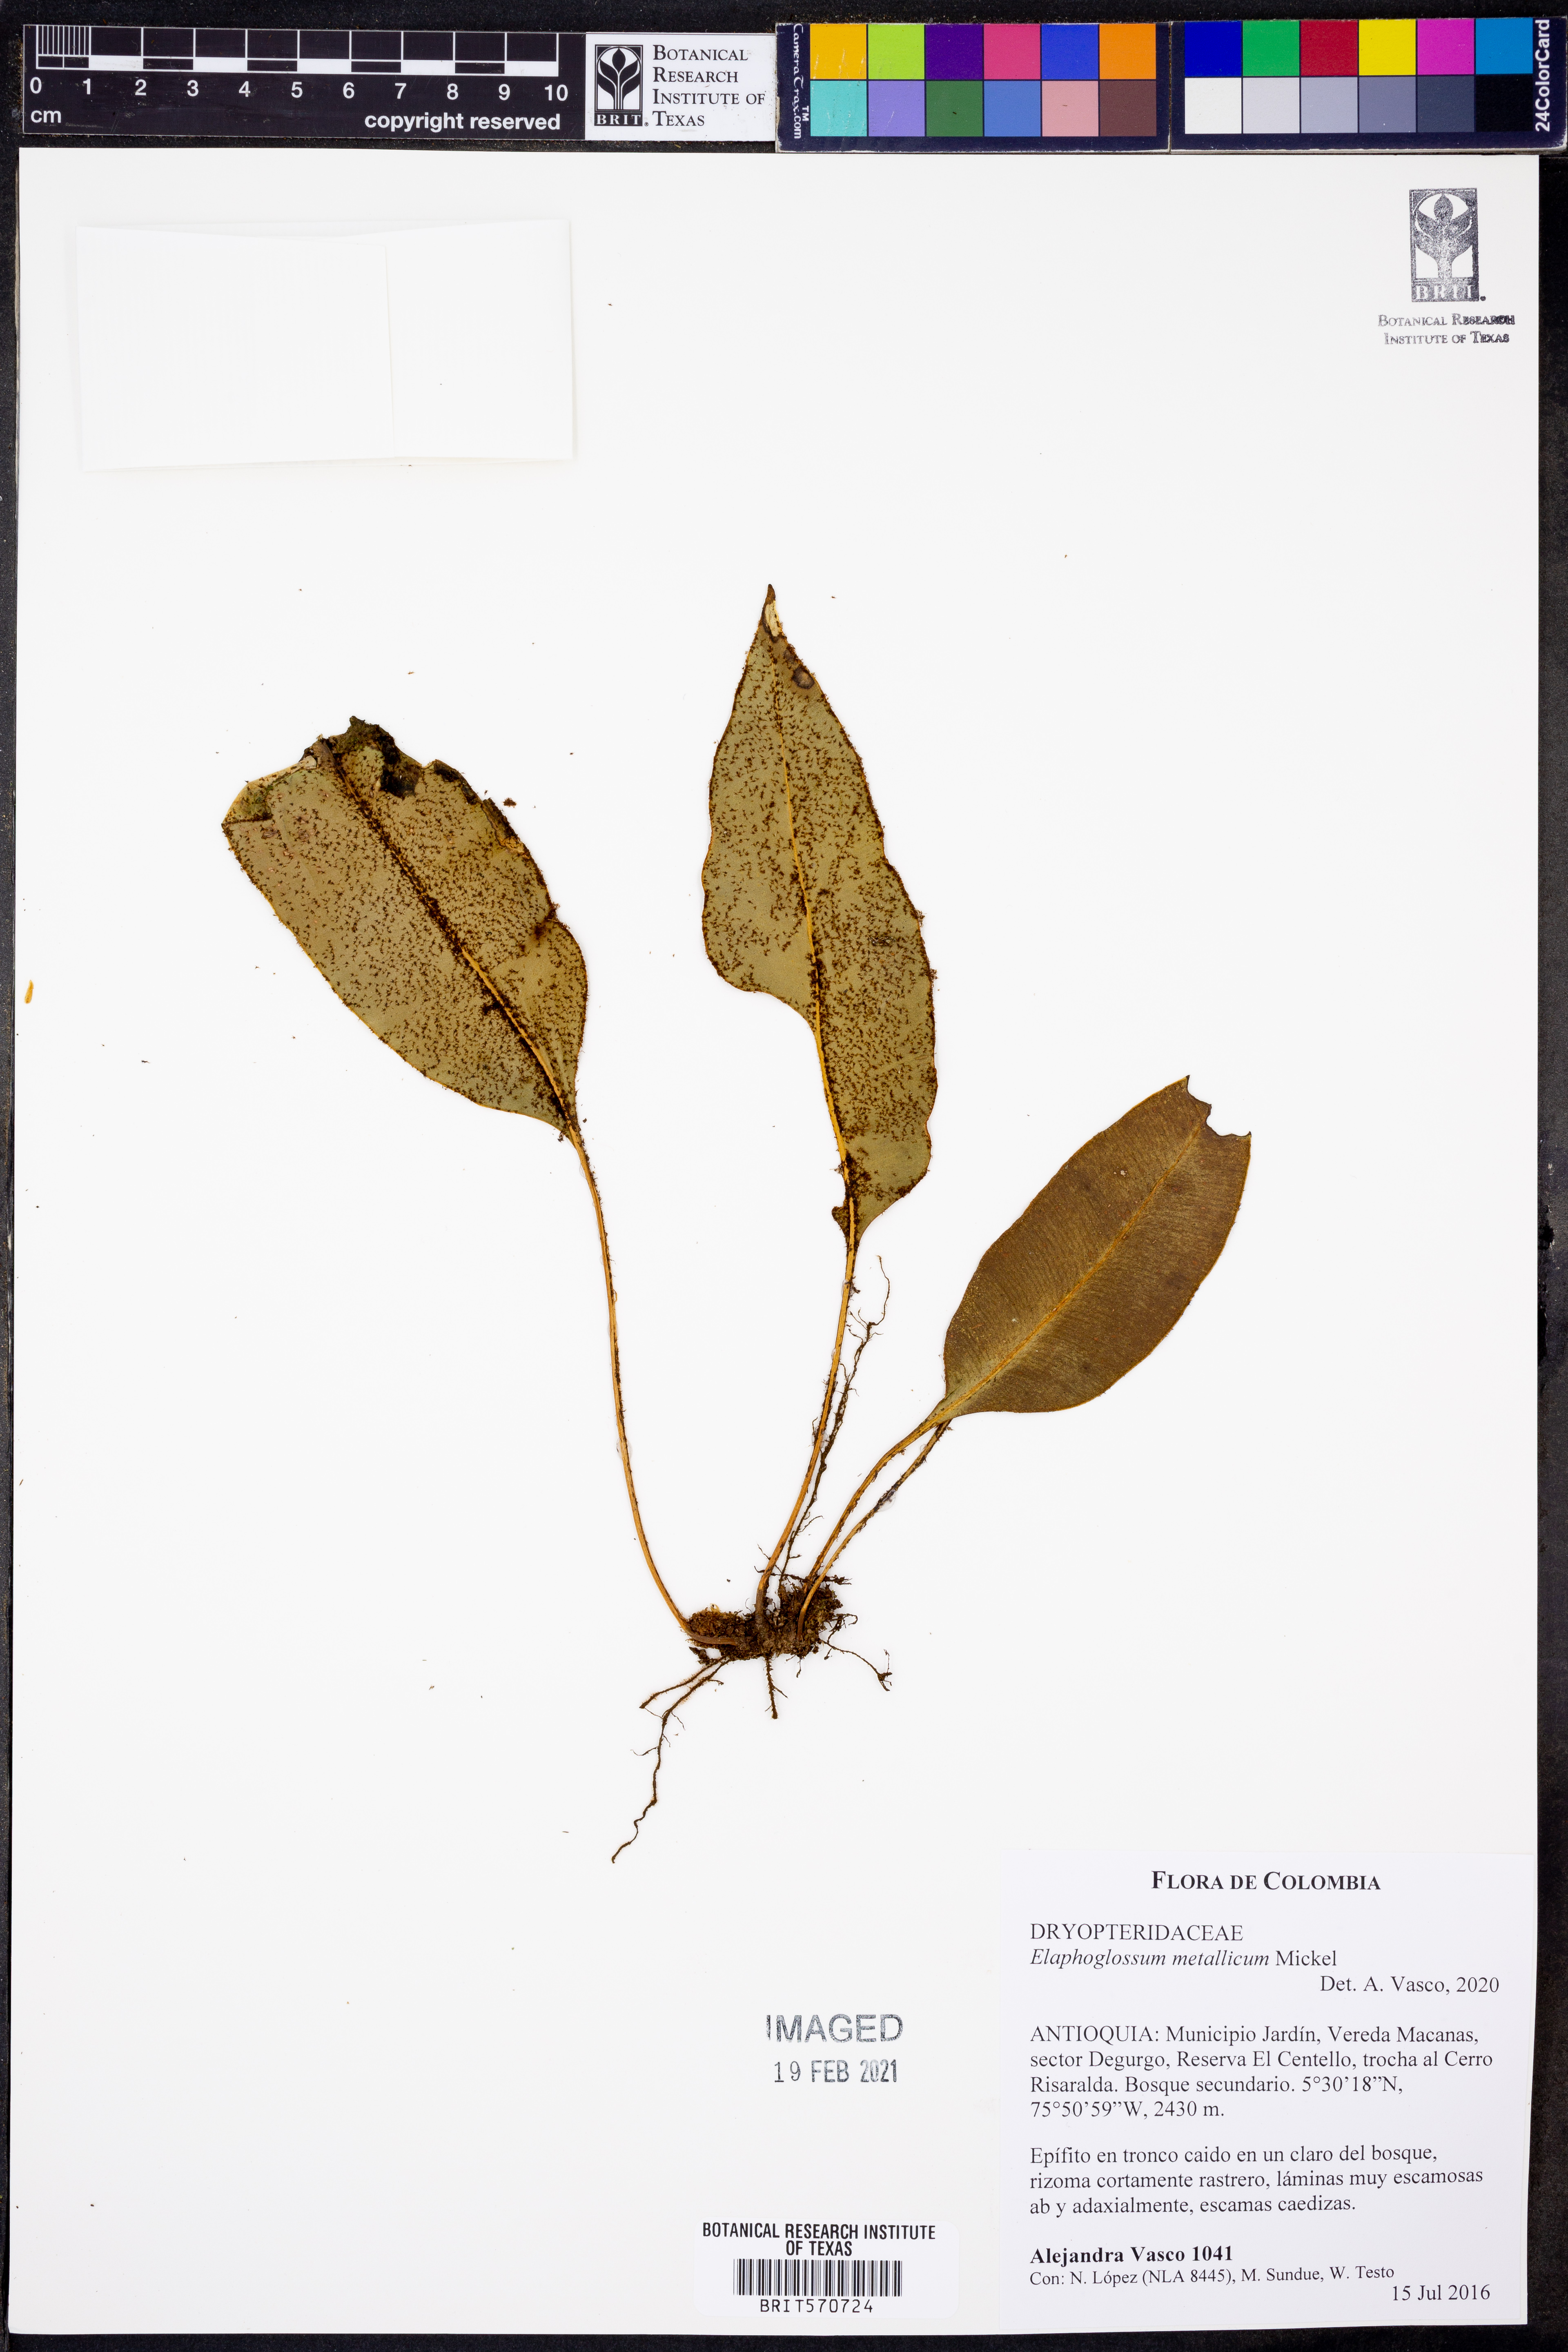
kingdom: Plantae
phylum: Tracheophyta
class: Polypodiopsida
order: Polypodiales
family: Dryopteridaceae
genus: Elaphoglossum
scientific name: Elaphoglossum metallicum
